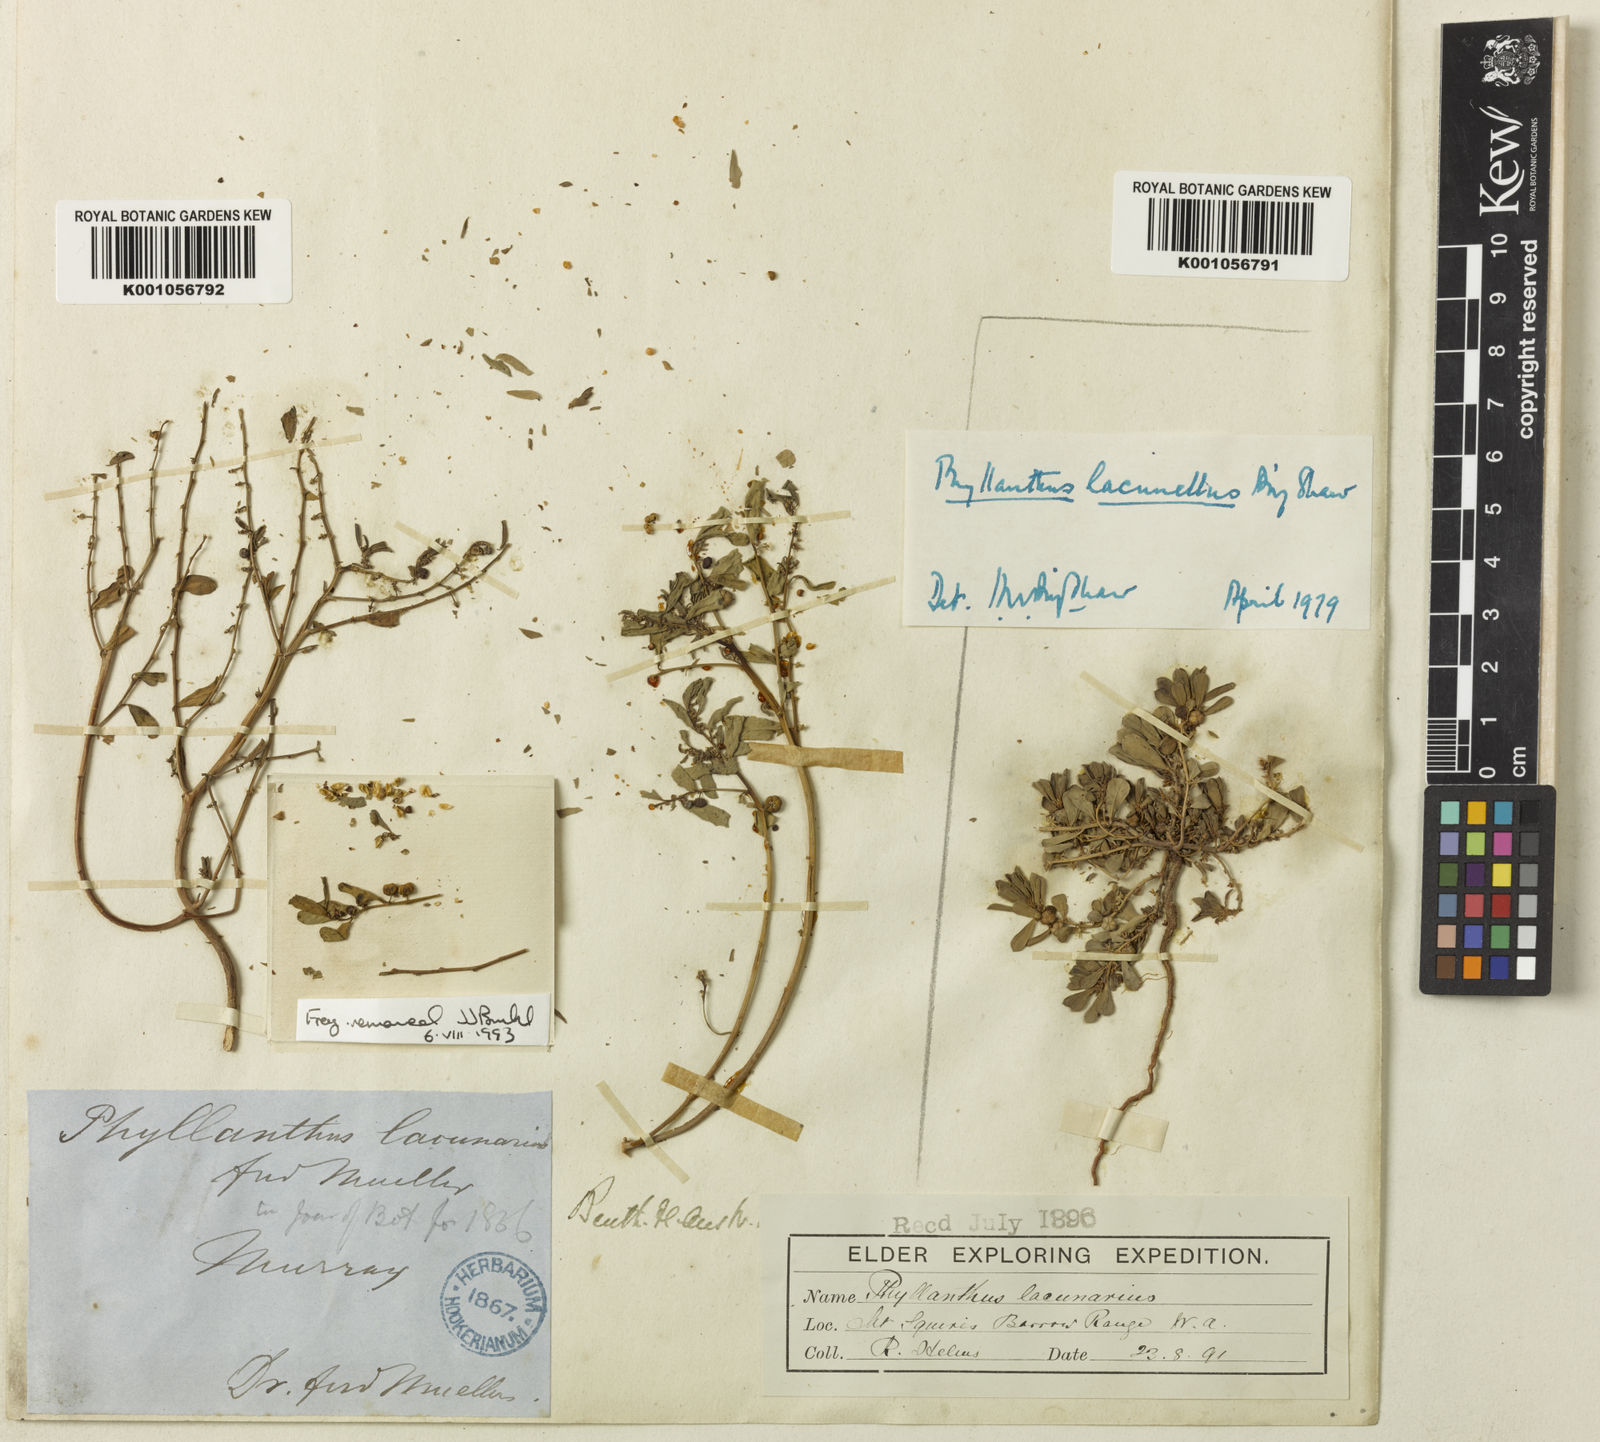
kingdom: Plantae
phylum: Tracheophyta
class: Magnoliopsida
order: Malpighiales
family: Phyllanthaceae
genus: Phyllanthus
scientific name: Phyllanthus lacunarius
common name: Caraweena-clover
